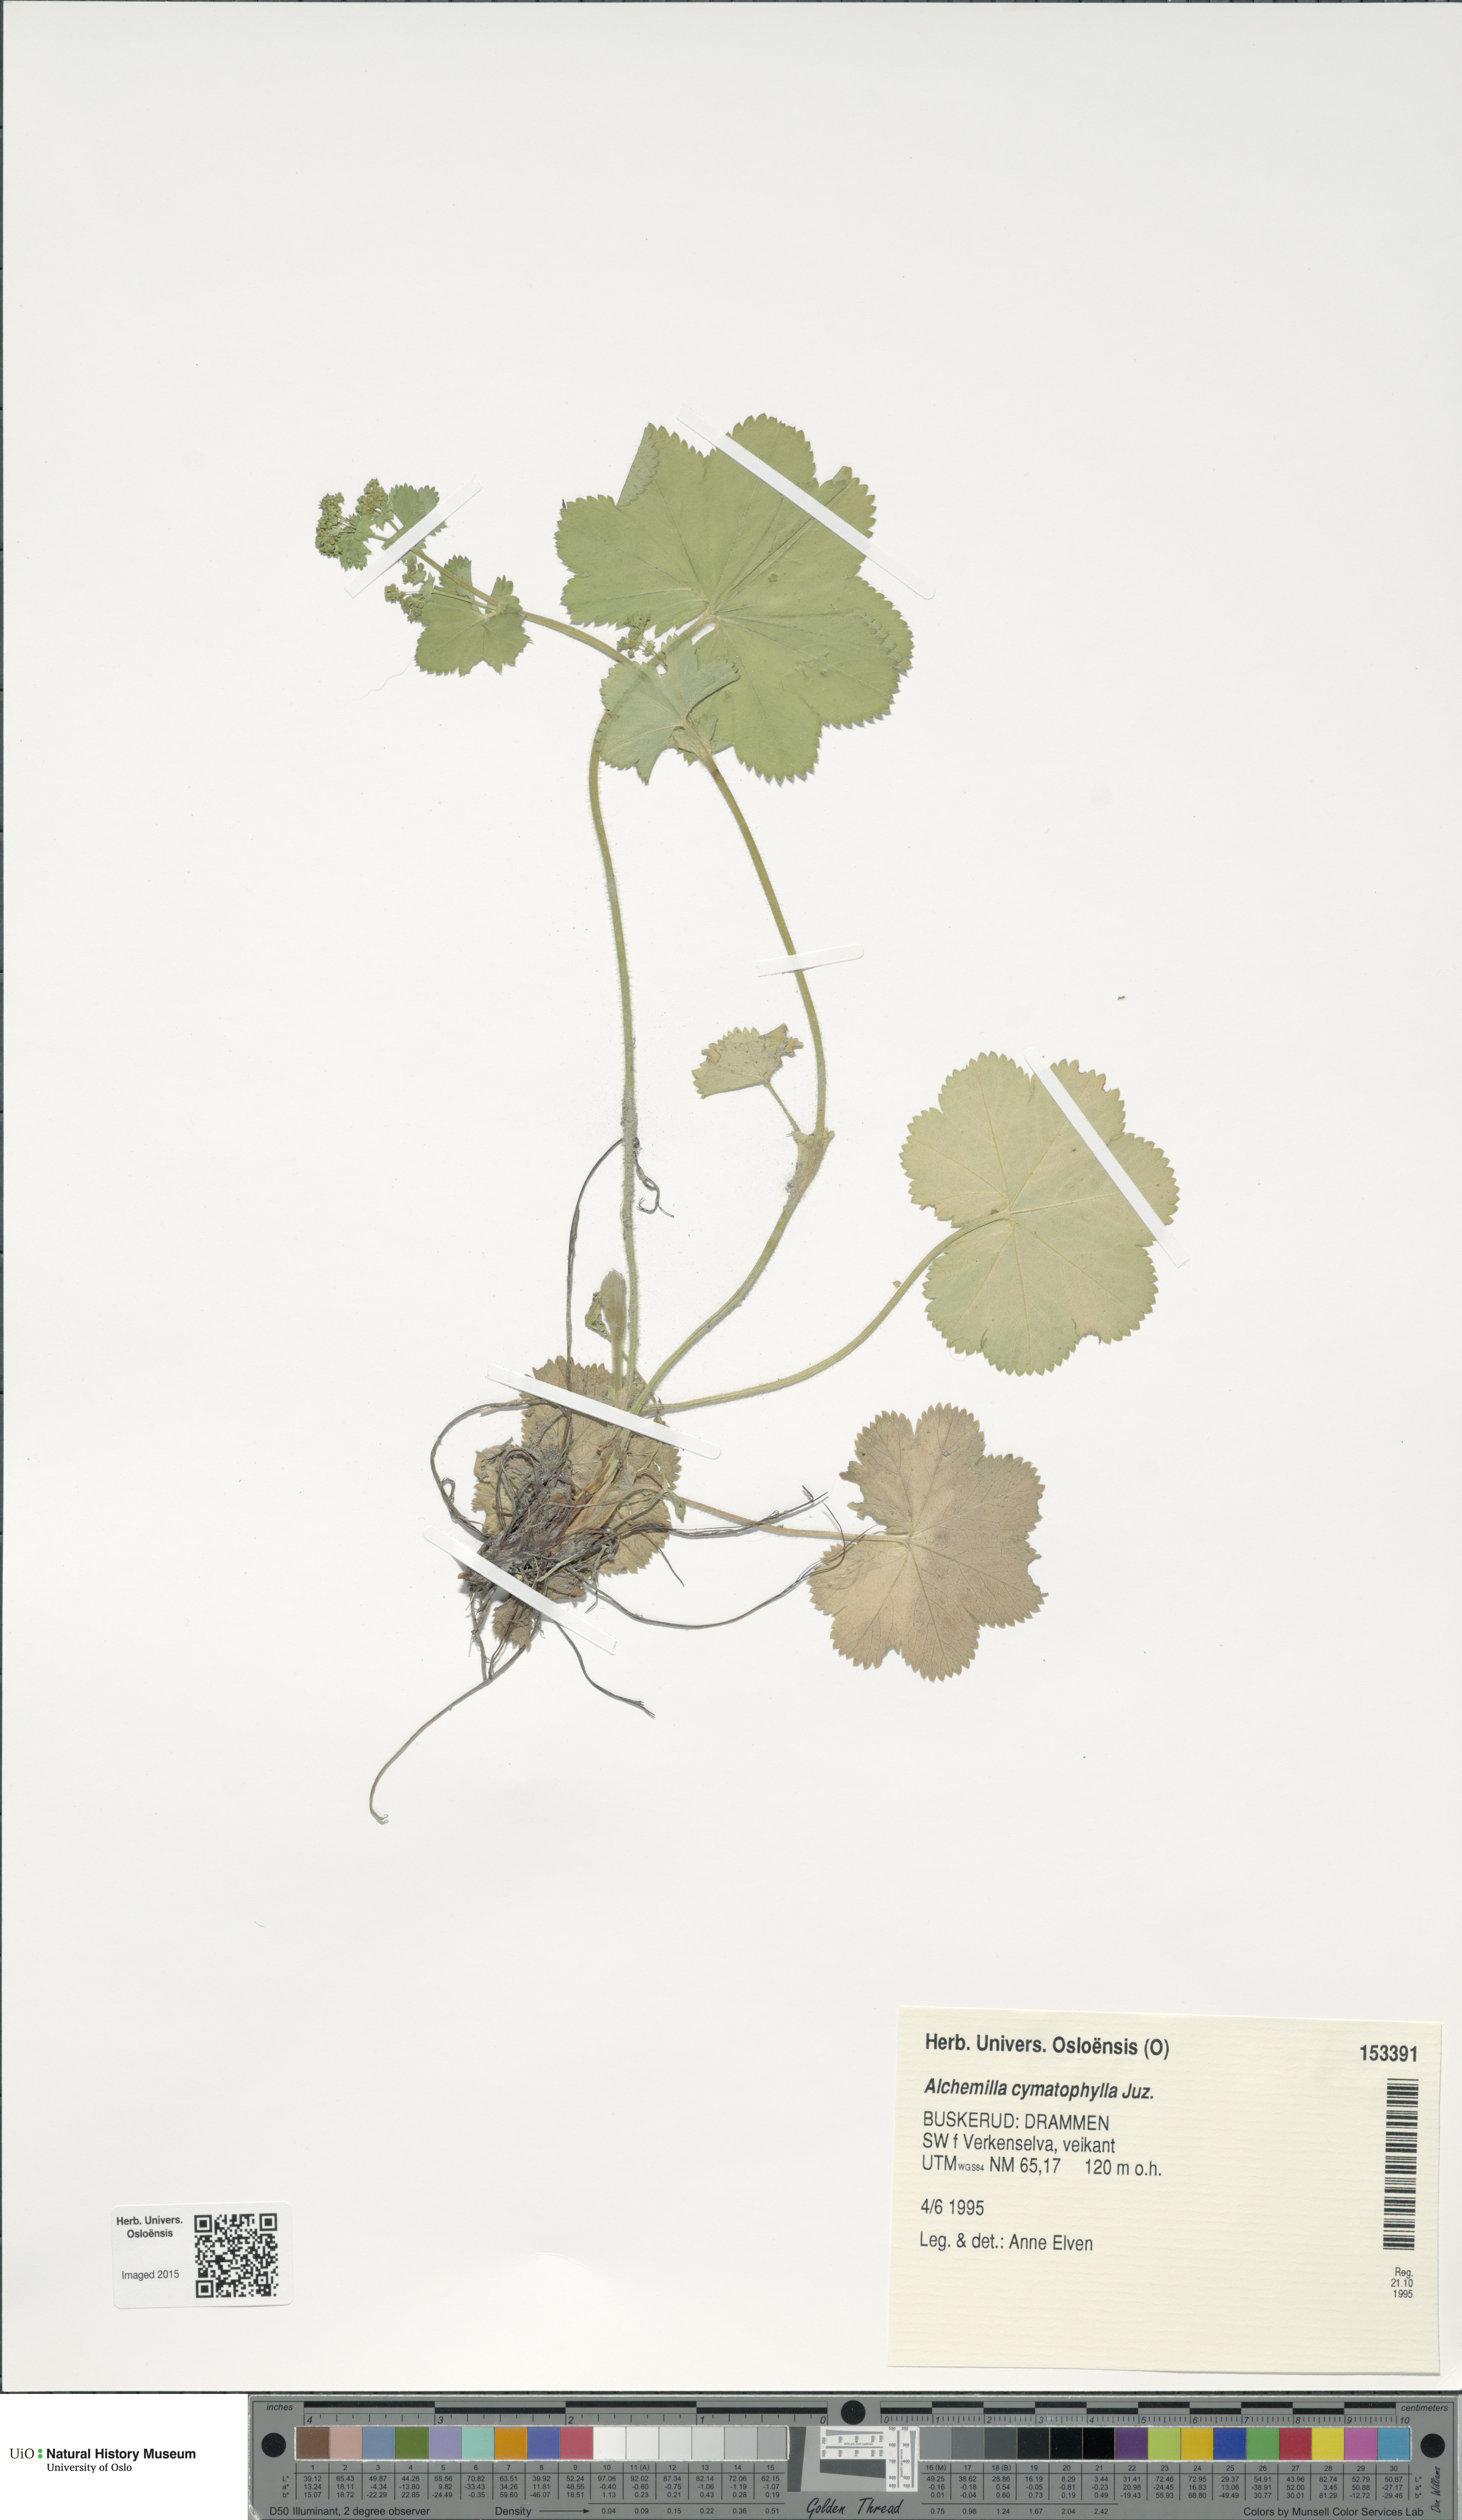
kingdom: Plantae
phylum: Tracheophyta
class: Magnoliopsida
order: Rosales
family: Rosaceae
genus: Alchemilla
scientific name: Alchemilla cymatophylla
